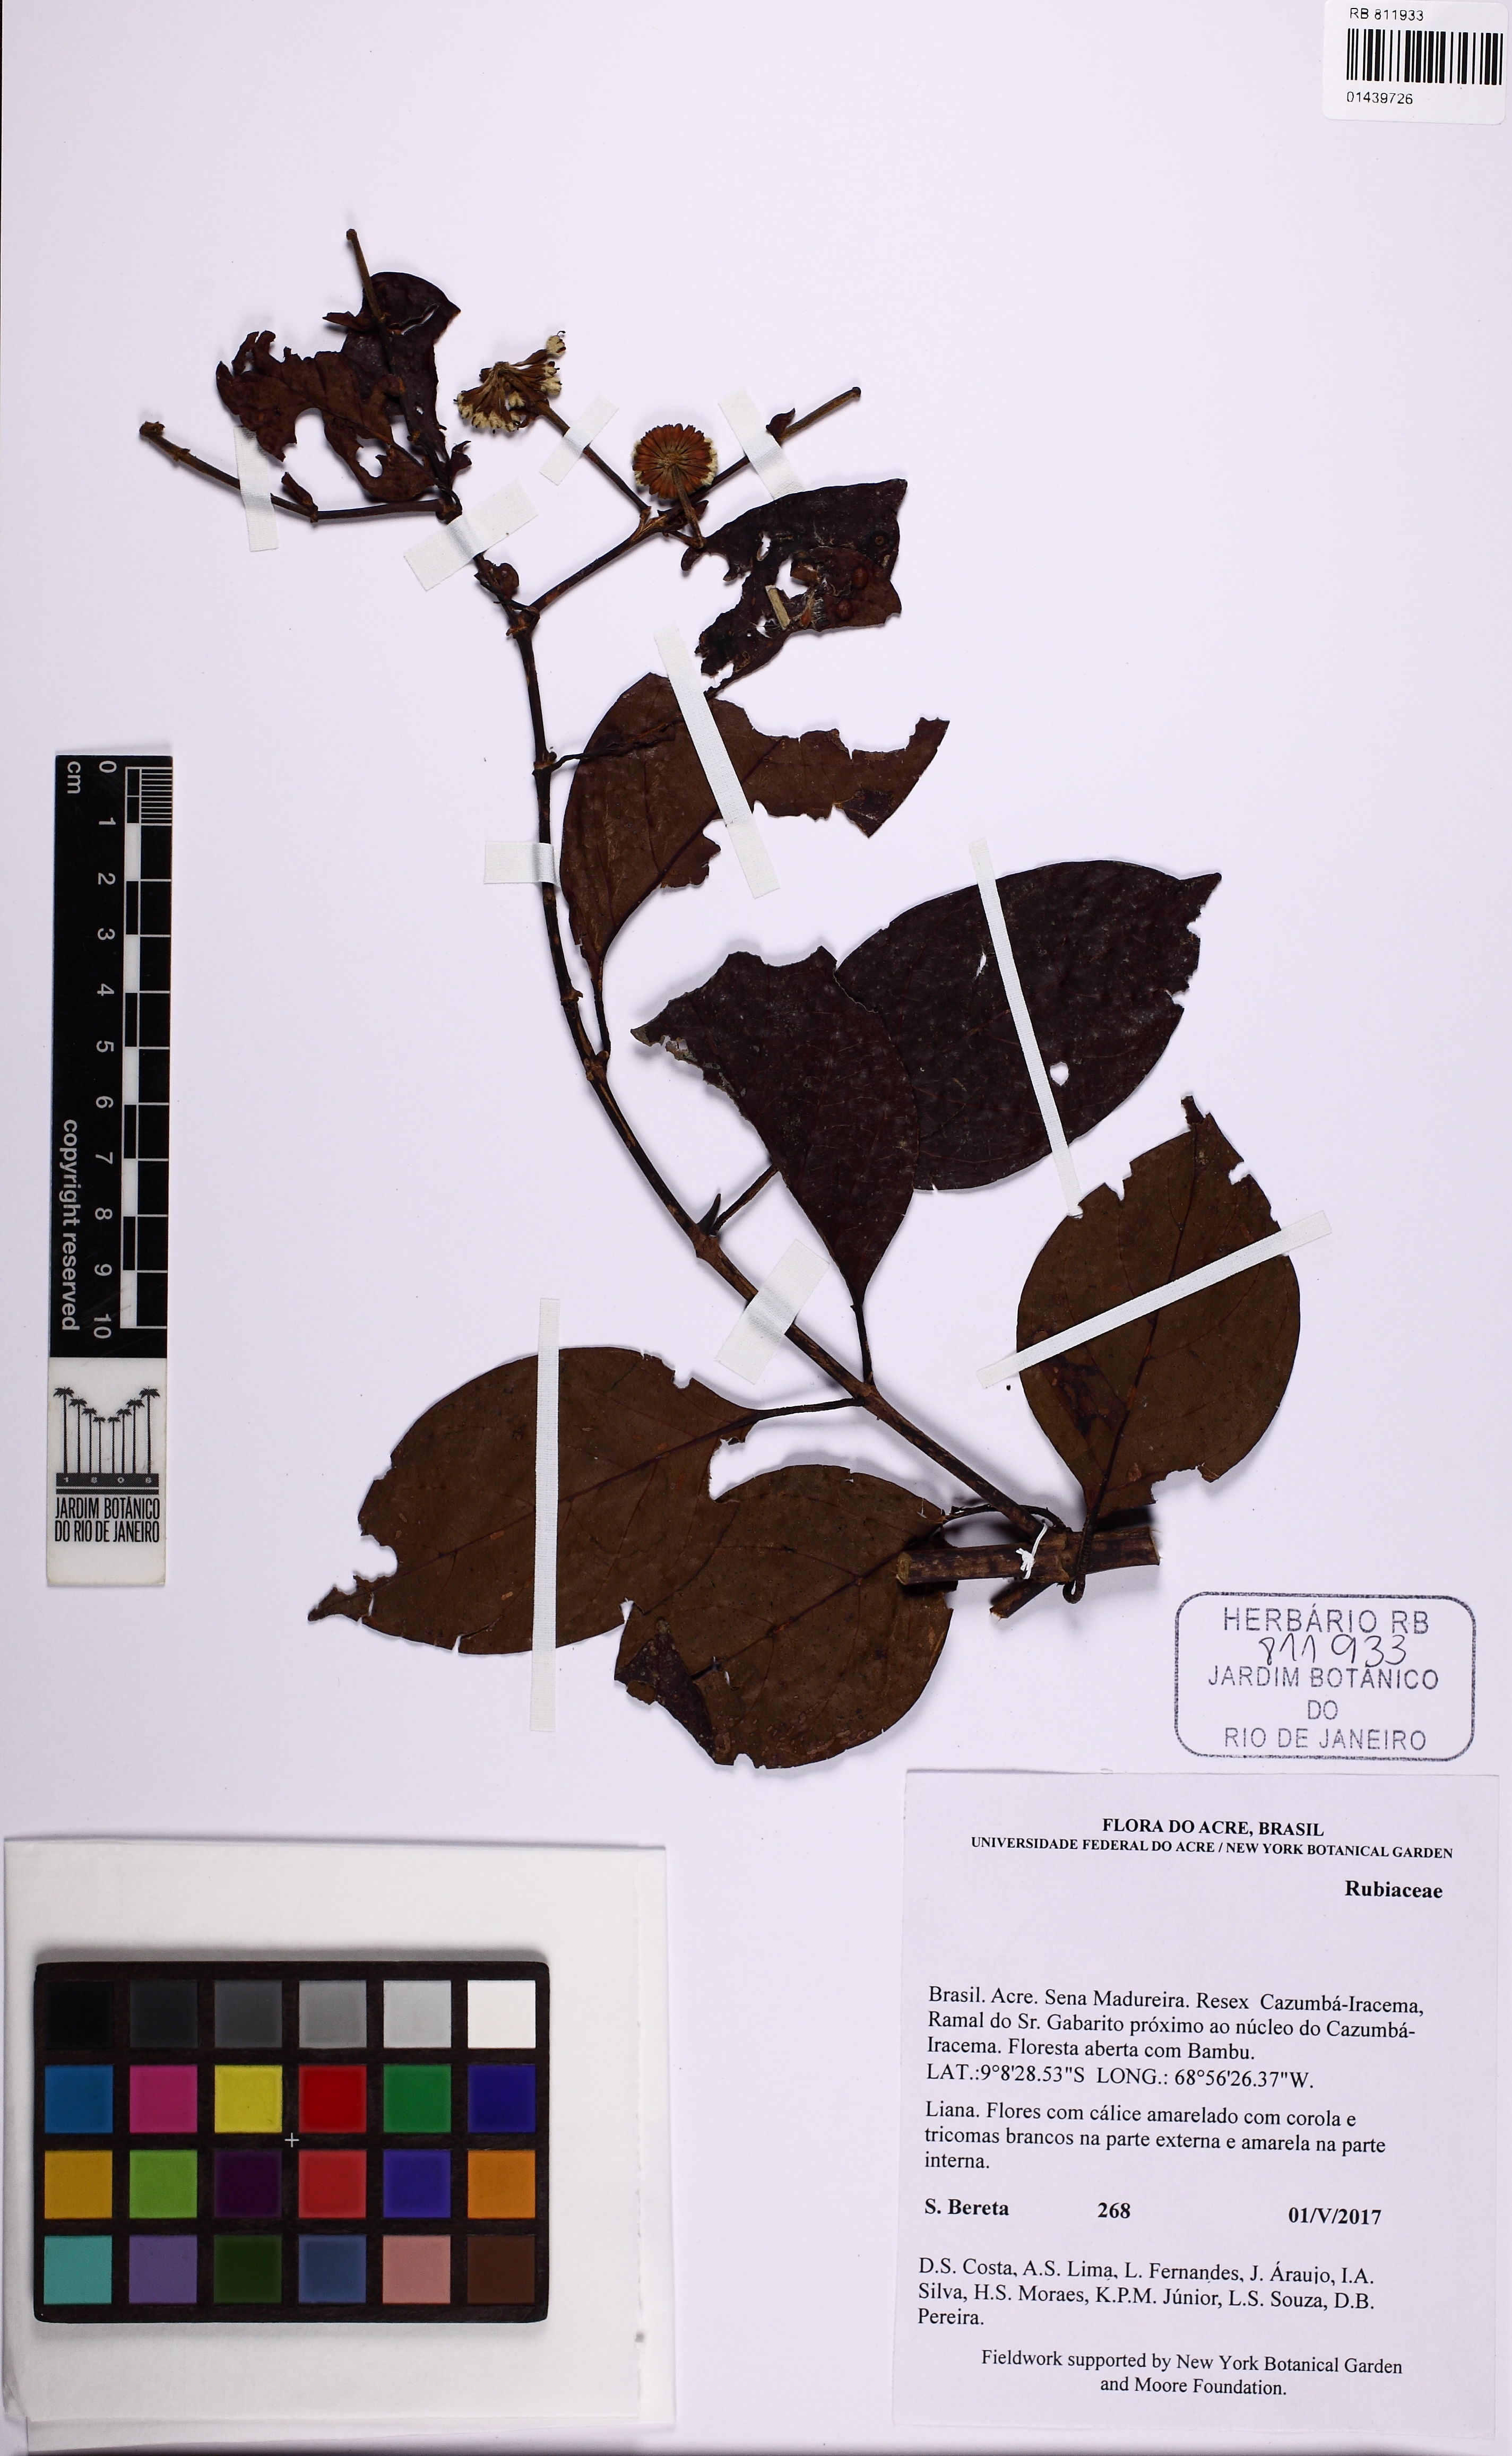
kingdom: Plantae
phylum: Tracheophyta
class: Magnoliopsida
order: Gentianales
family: Rubiaceae
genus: Uncaria
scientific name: Uncaria guianensis
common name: Cat's-claw
